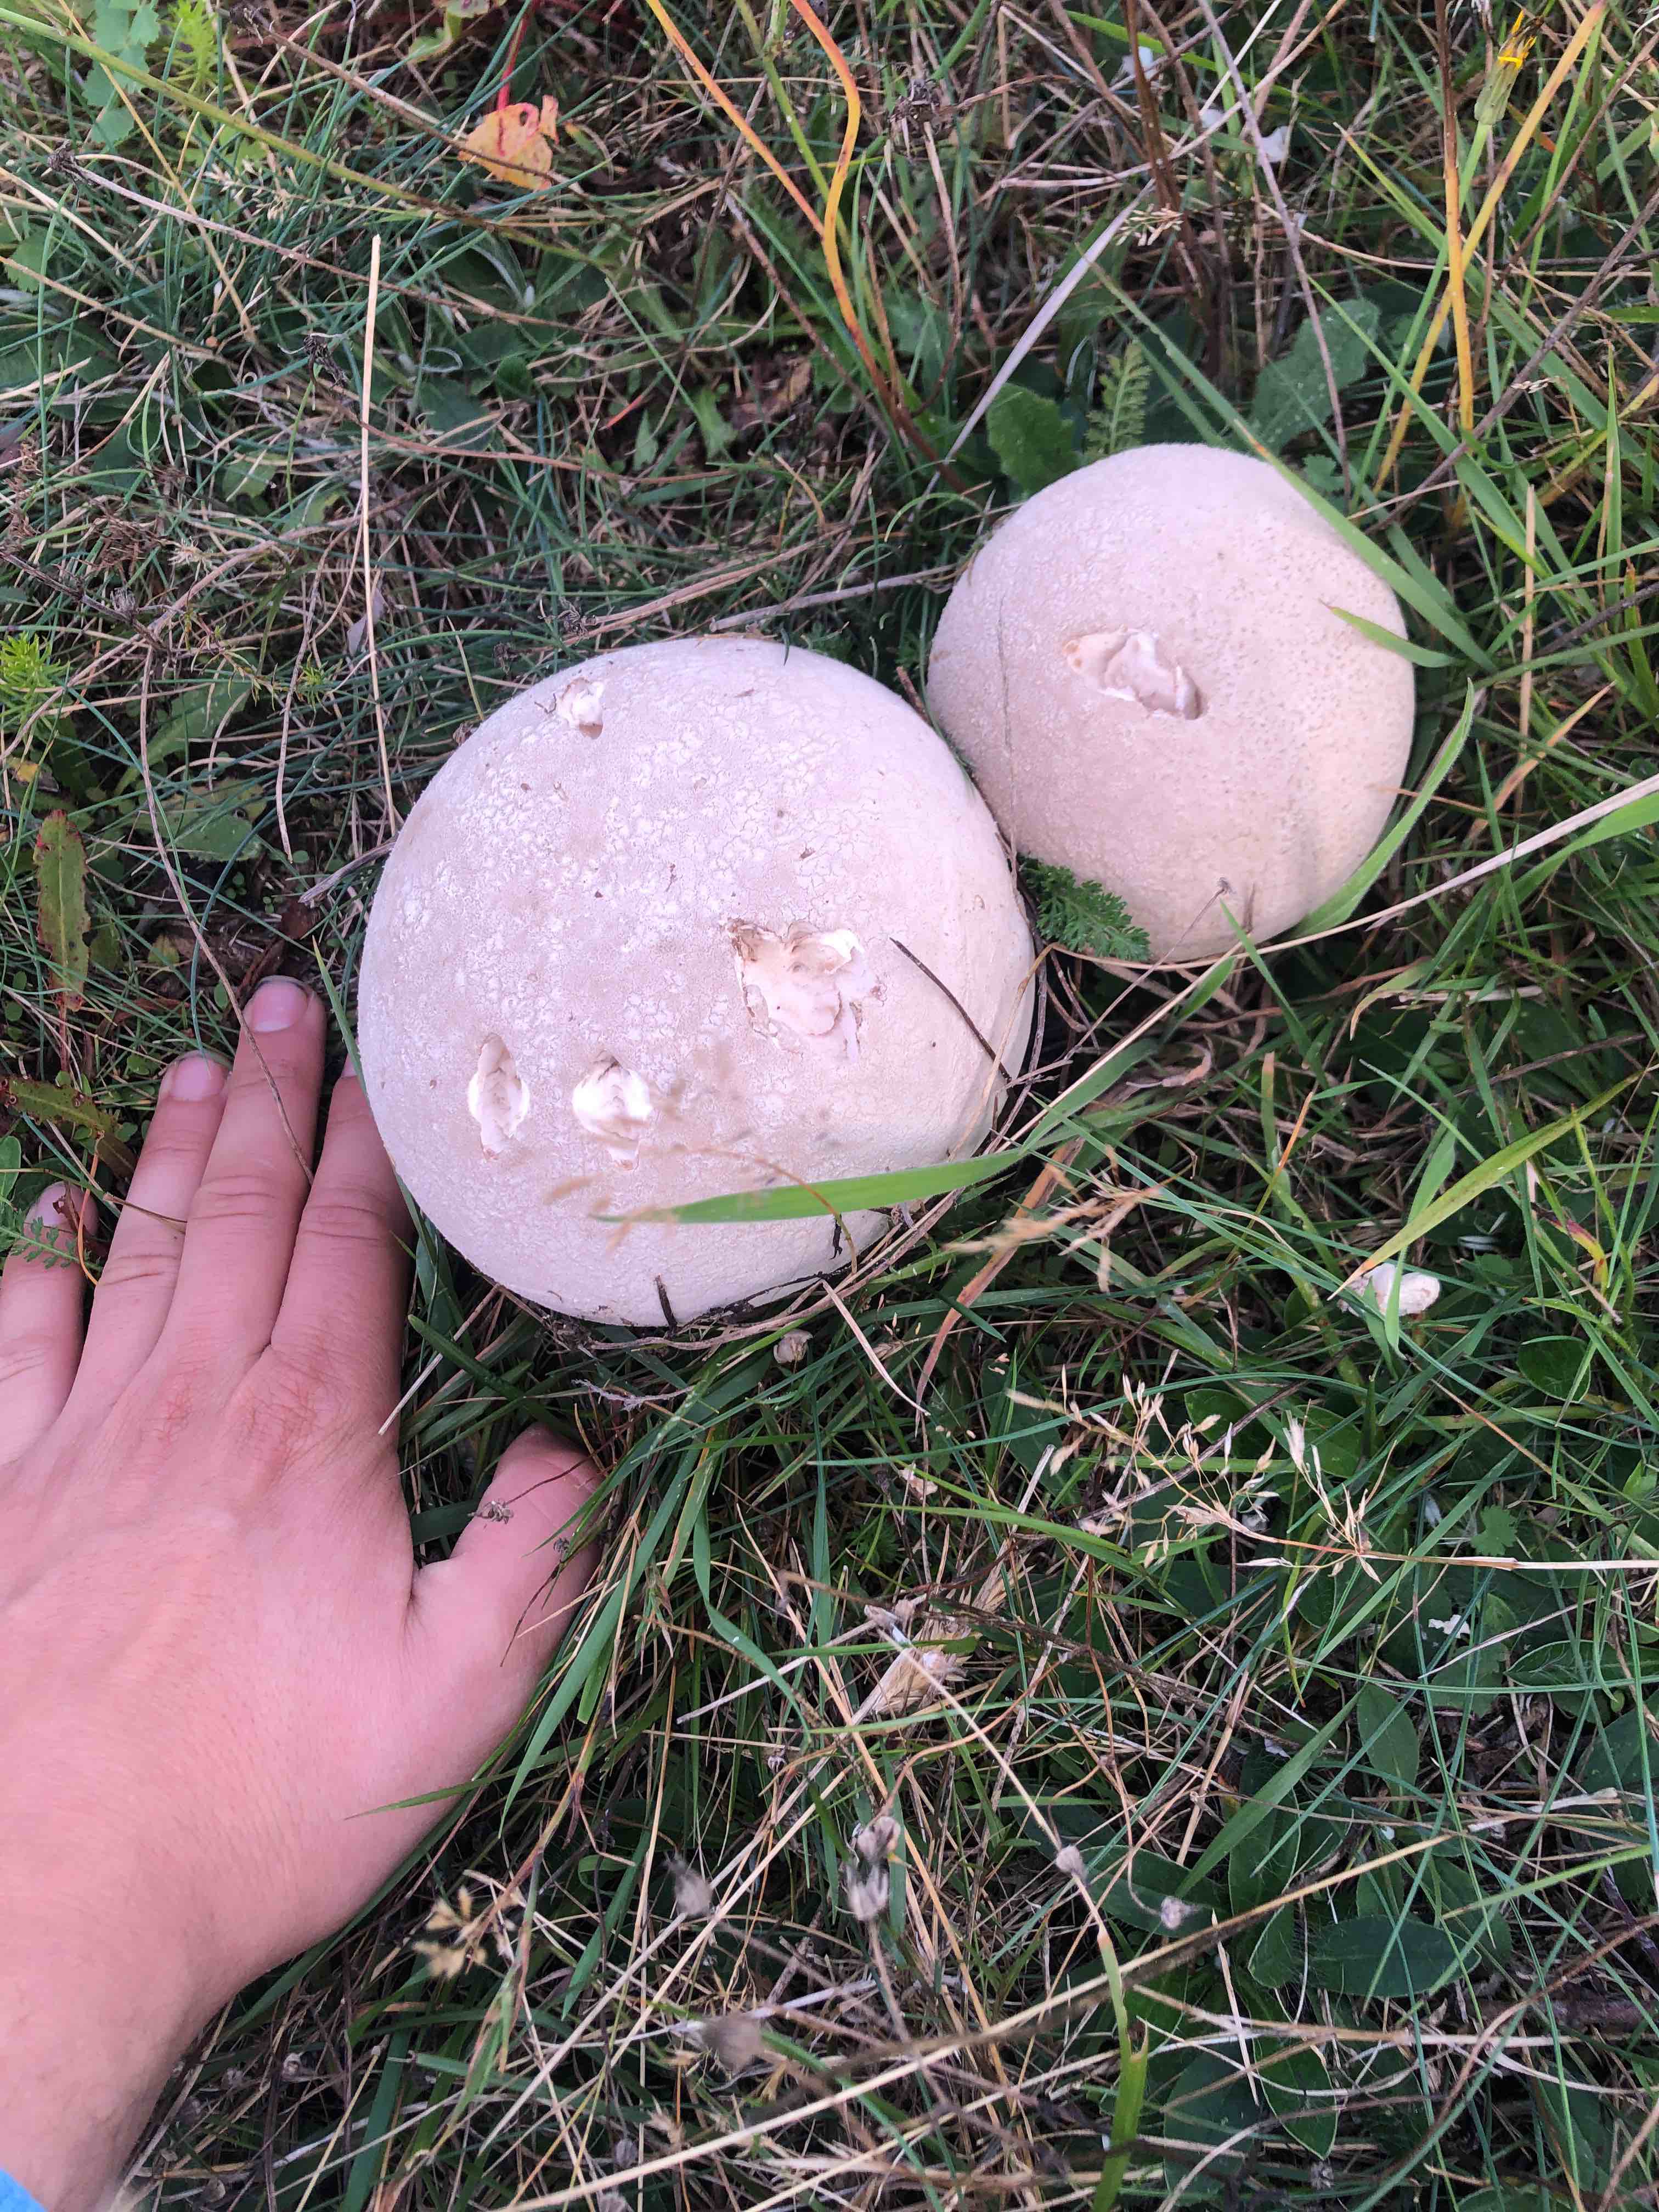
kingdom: Fungi
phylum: Basidiomycota
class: Agaricomycetes
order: Agaricales
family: Lycoperdaceae
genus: Calvatia
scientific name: Calvatia gigantea
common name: kæmpestøvbold
